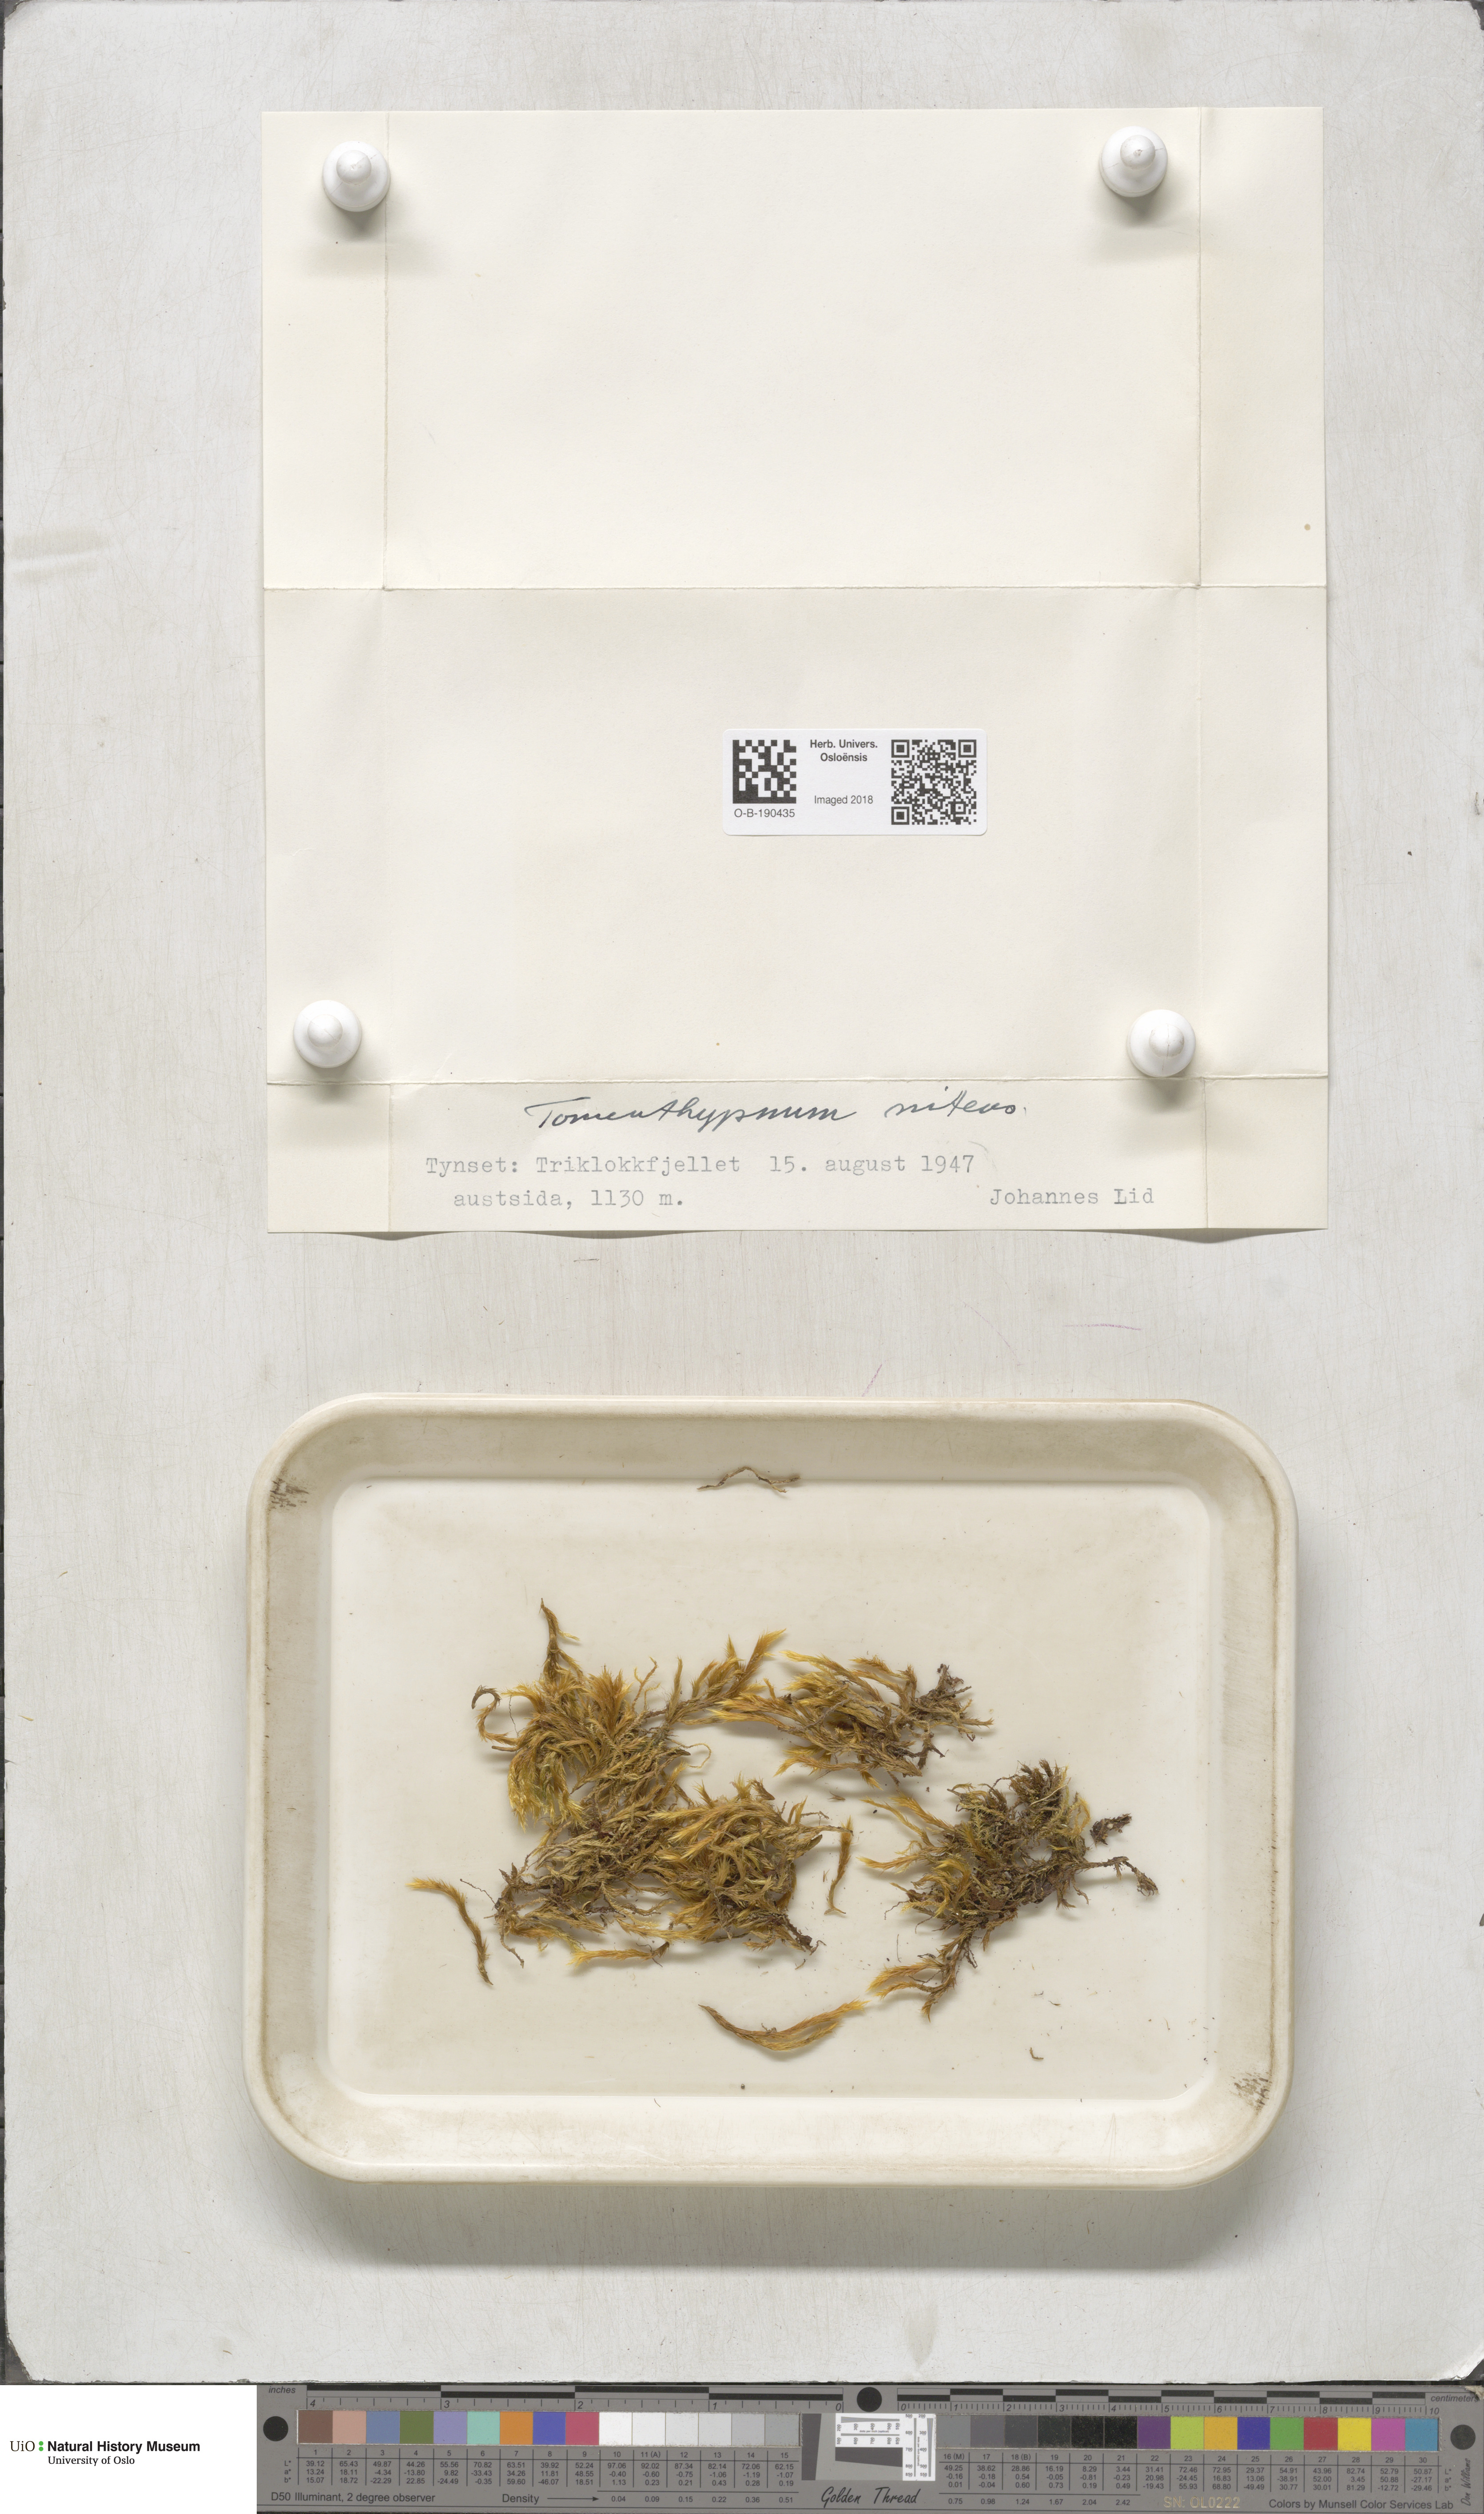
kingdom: Plantae
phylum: Bryophyta
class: Bryopsida
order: Hypnales
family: Amblystegiaceae
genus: Tomentypnum
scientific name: Tomentypnum nitens
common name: Golden fuzzy fen moss
